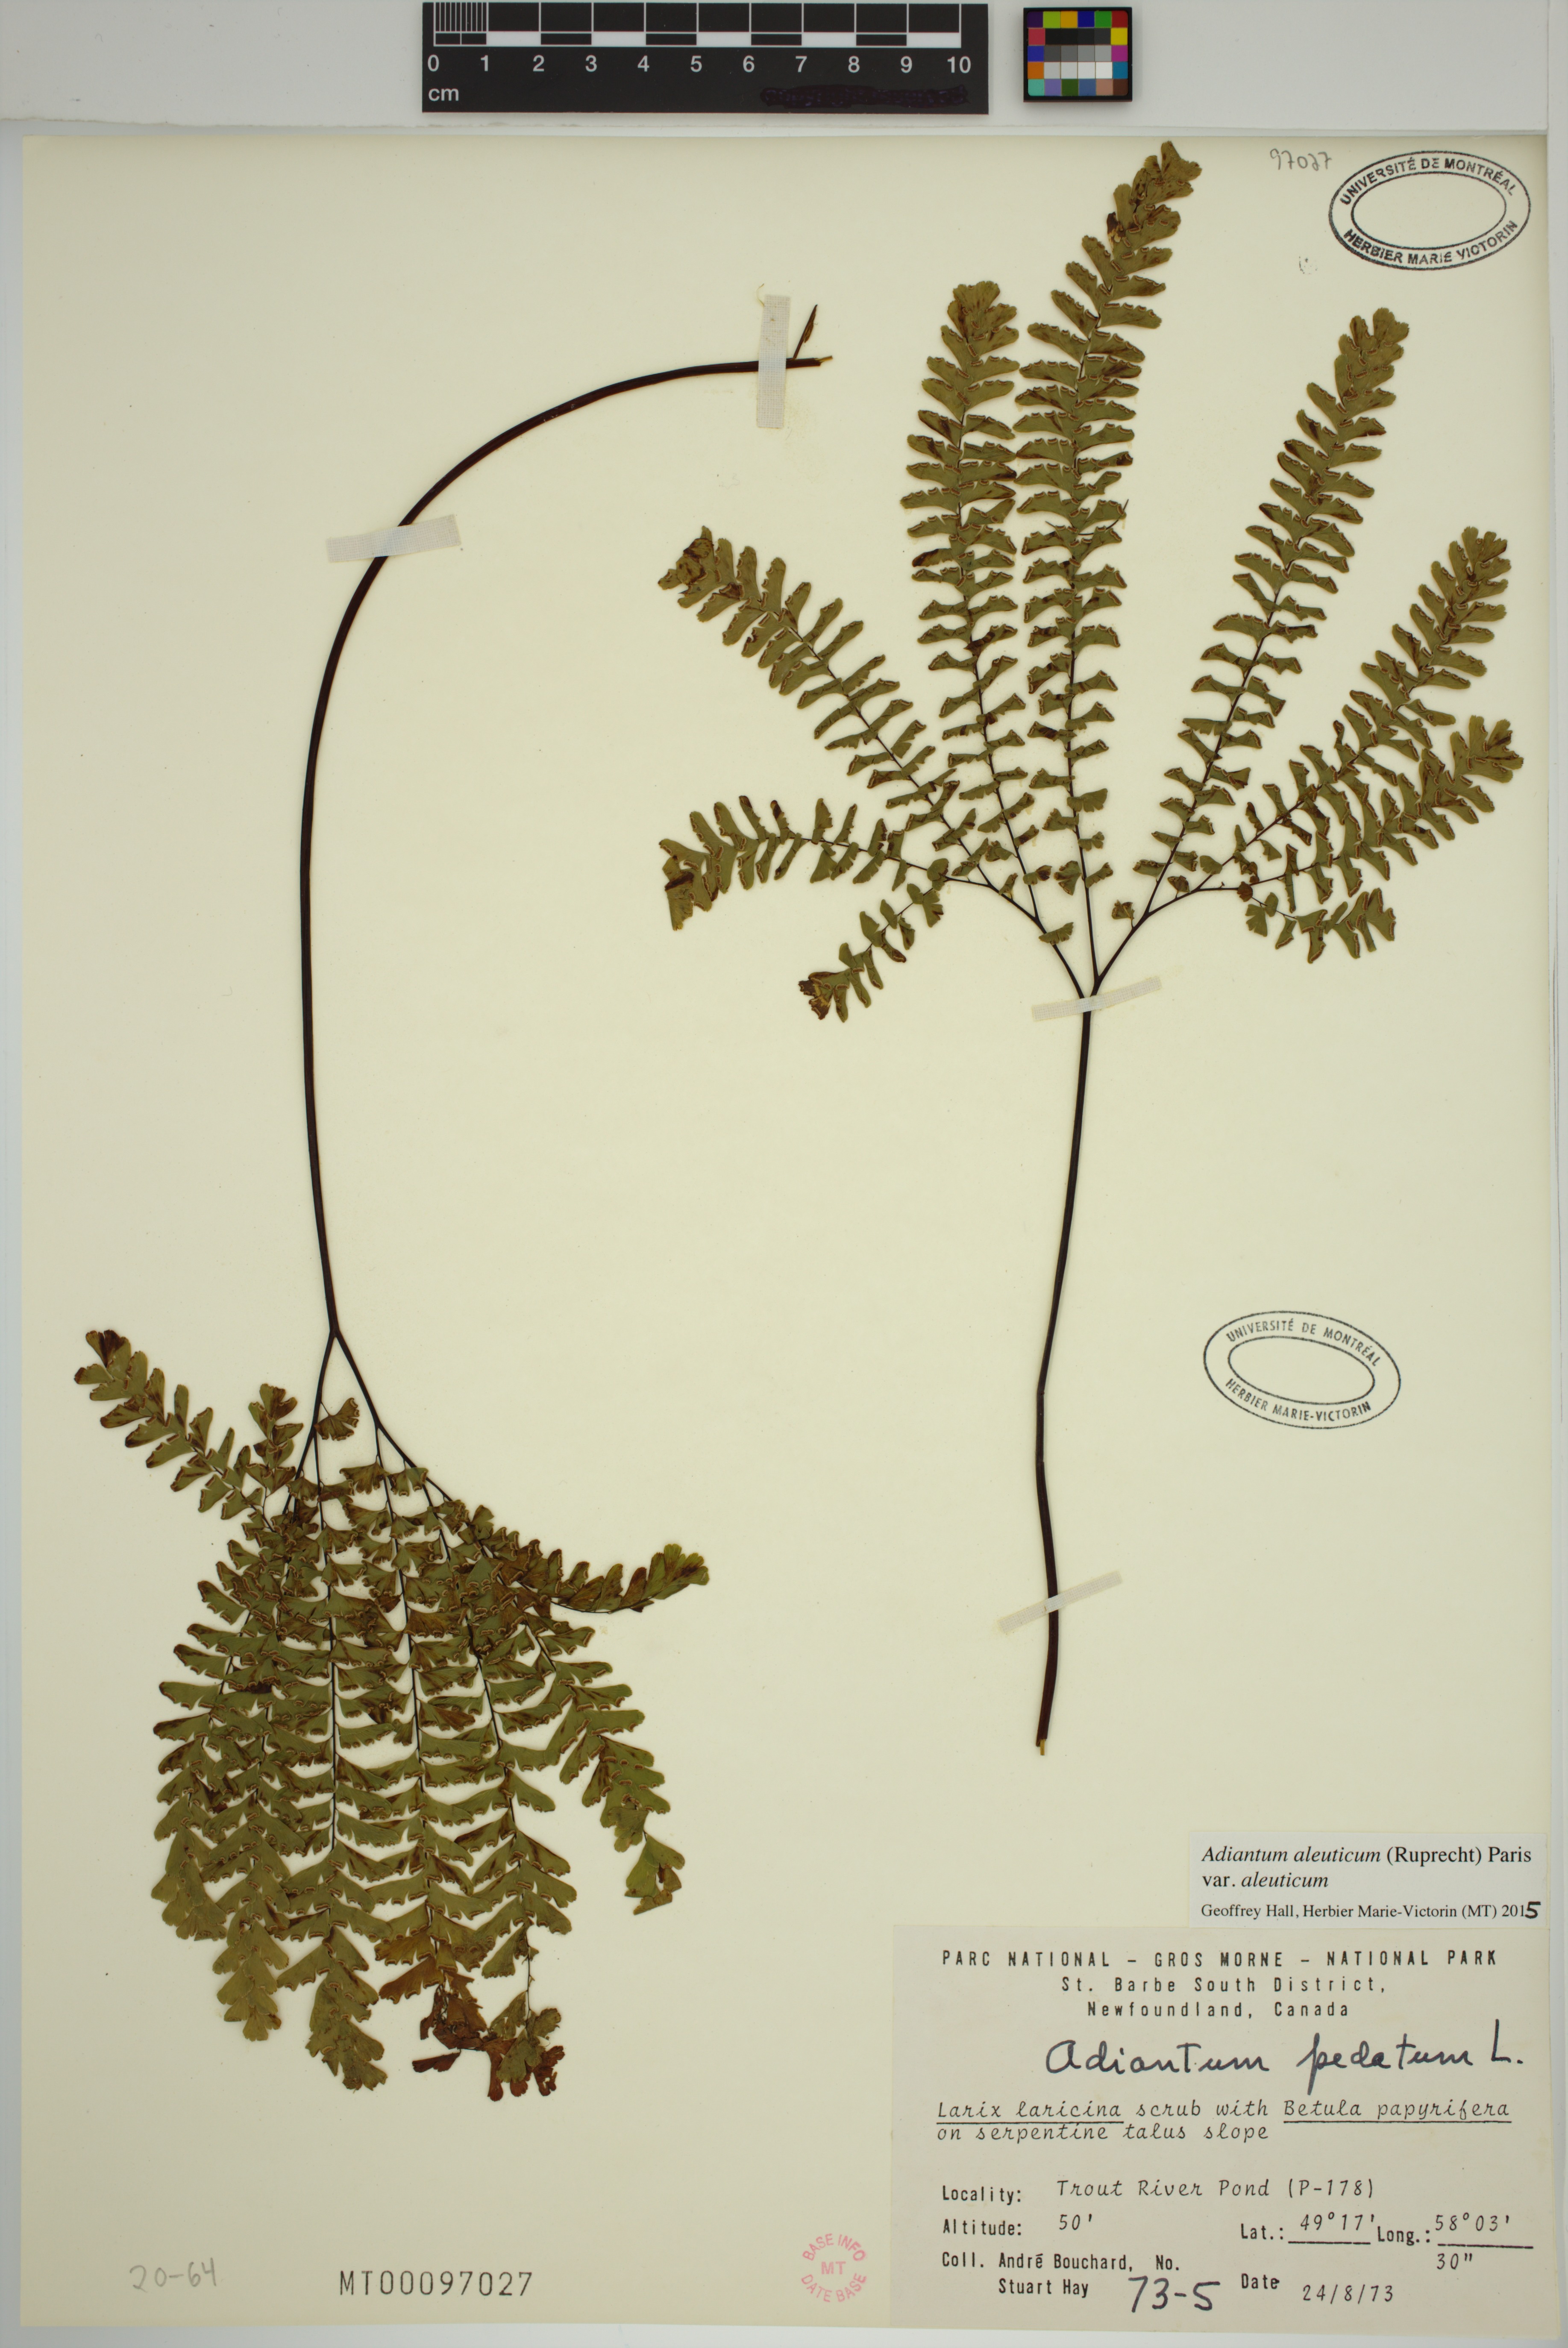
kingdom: Plantae
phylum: Tracheophyta
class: Polypodiopsida
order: Polypodiales
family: Pteridaceae
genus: Adiantum
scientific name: Adiantum aleuticum
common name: Aleutian maidenhair fern
